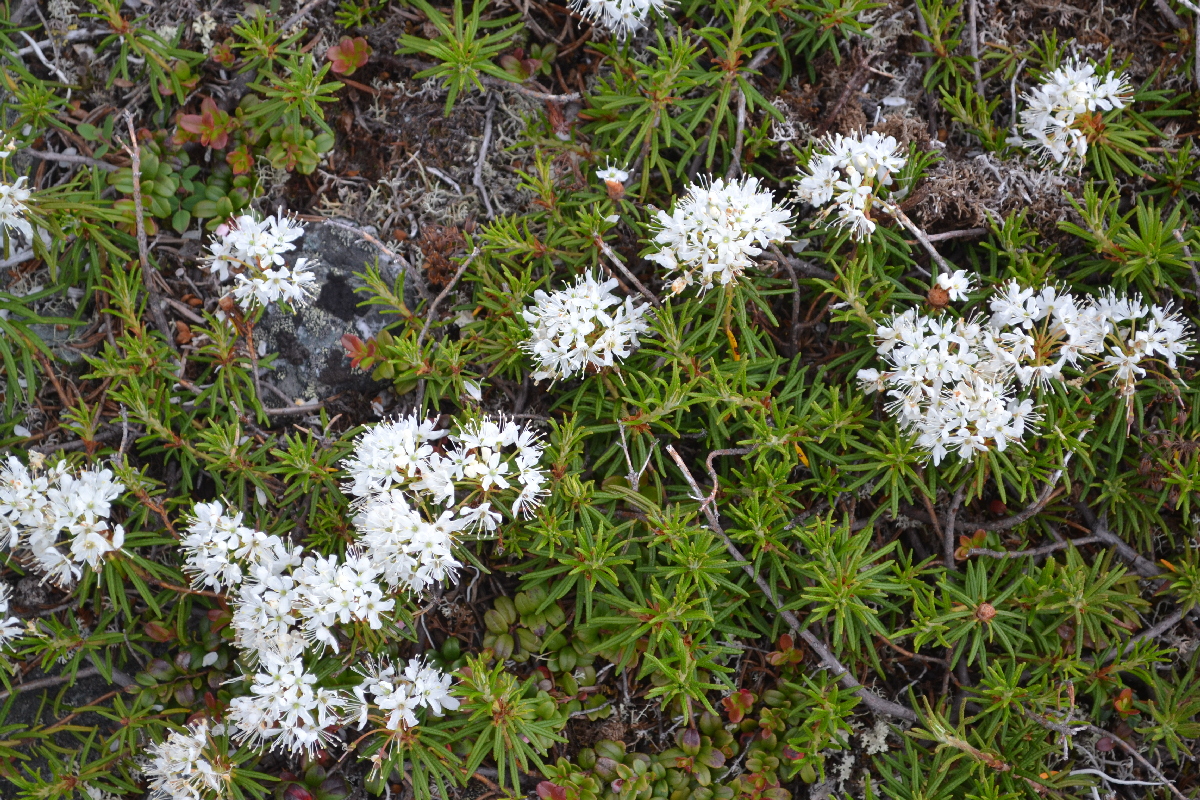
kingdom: Plantae
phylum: Tracheophyta
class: Magnoliopsida
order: Ericales
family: Ericaceae
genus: Rhododendron
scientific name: Rhododendron tomentosum
